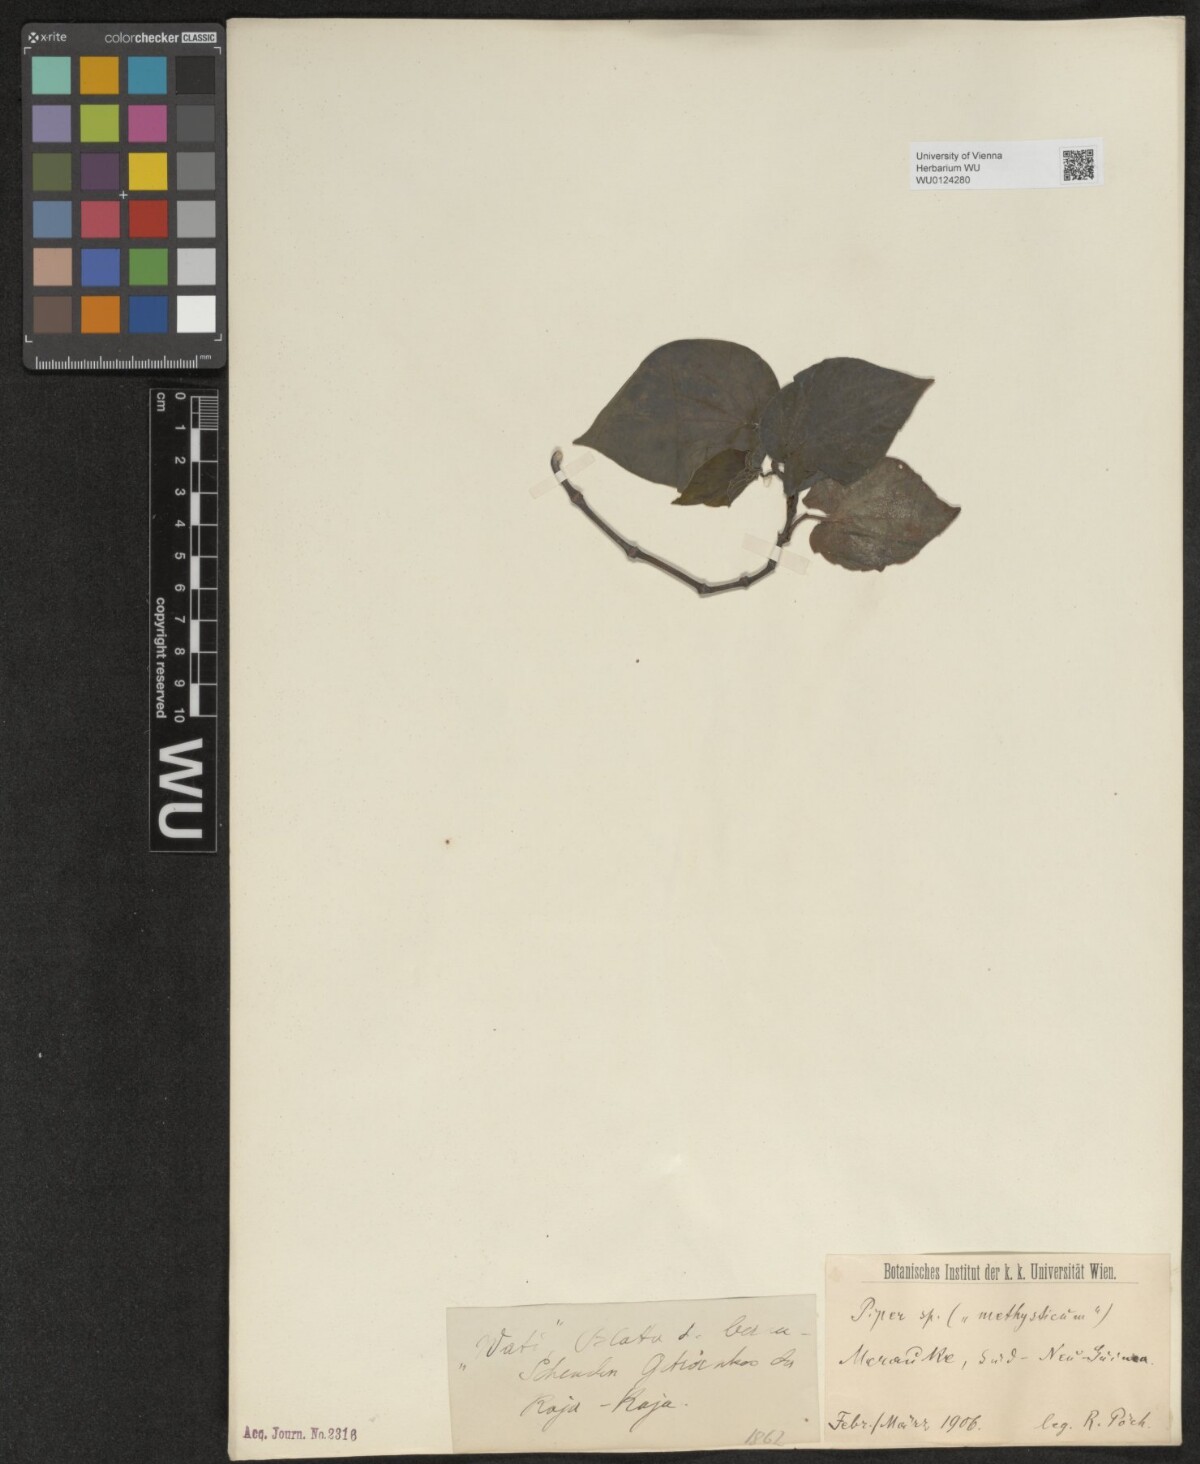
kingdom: Plantae
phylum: Tracheophyta
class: Magnoliopsida
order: Piperales
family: Piperaceae
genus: Piper
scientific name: Piper
